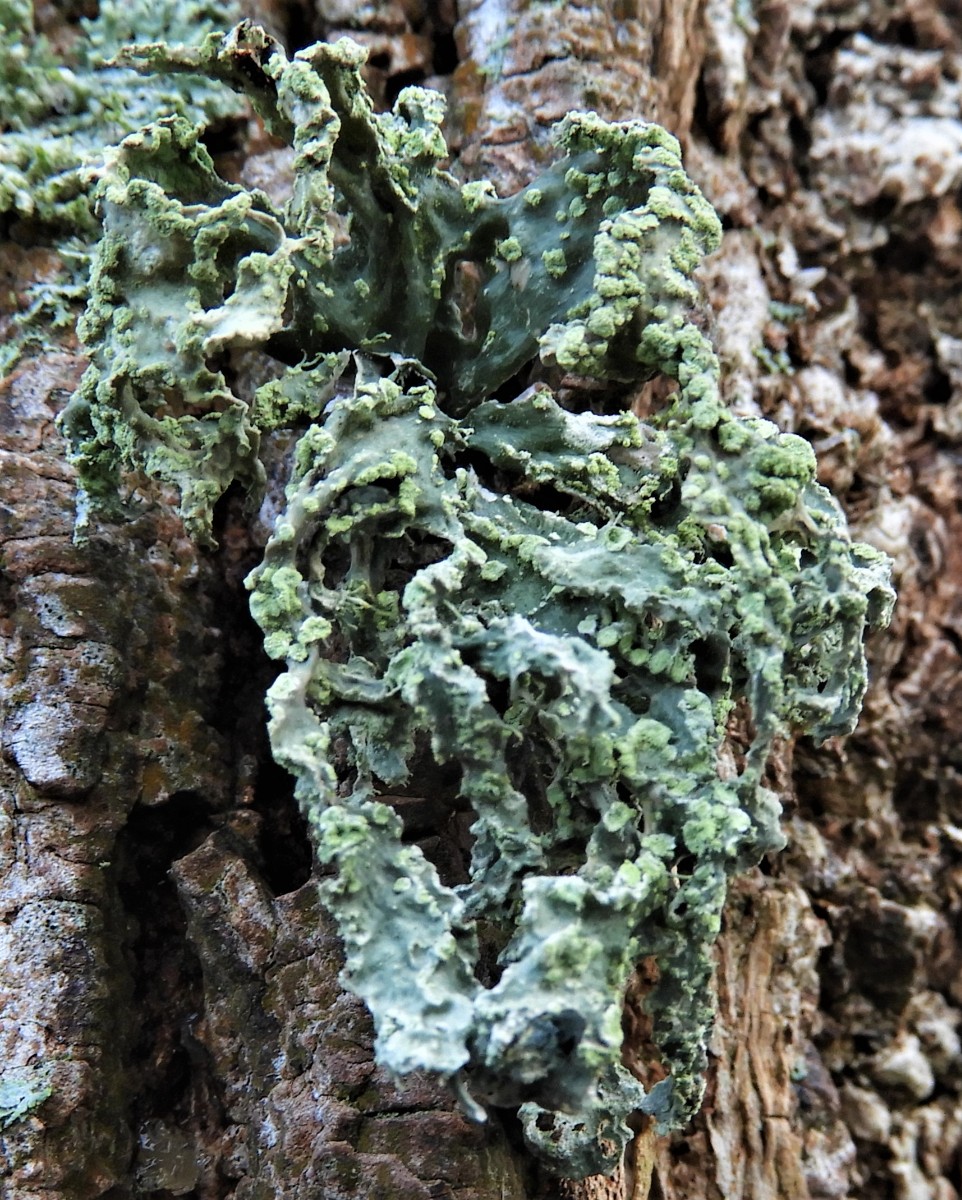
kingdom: Fungi
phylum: Ascomycota
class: Lecanoromycetes
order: Lecanorales
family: Ramalinaceae
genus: Ramalina
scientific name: Ramalina farinacea
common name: melet grenlav
